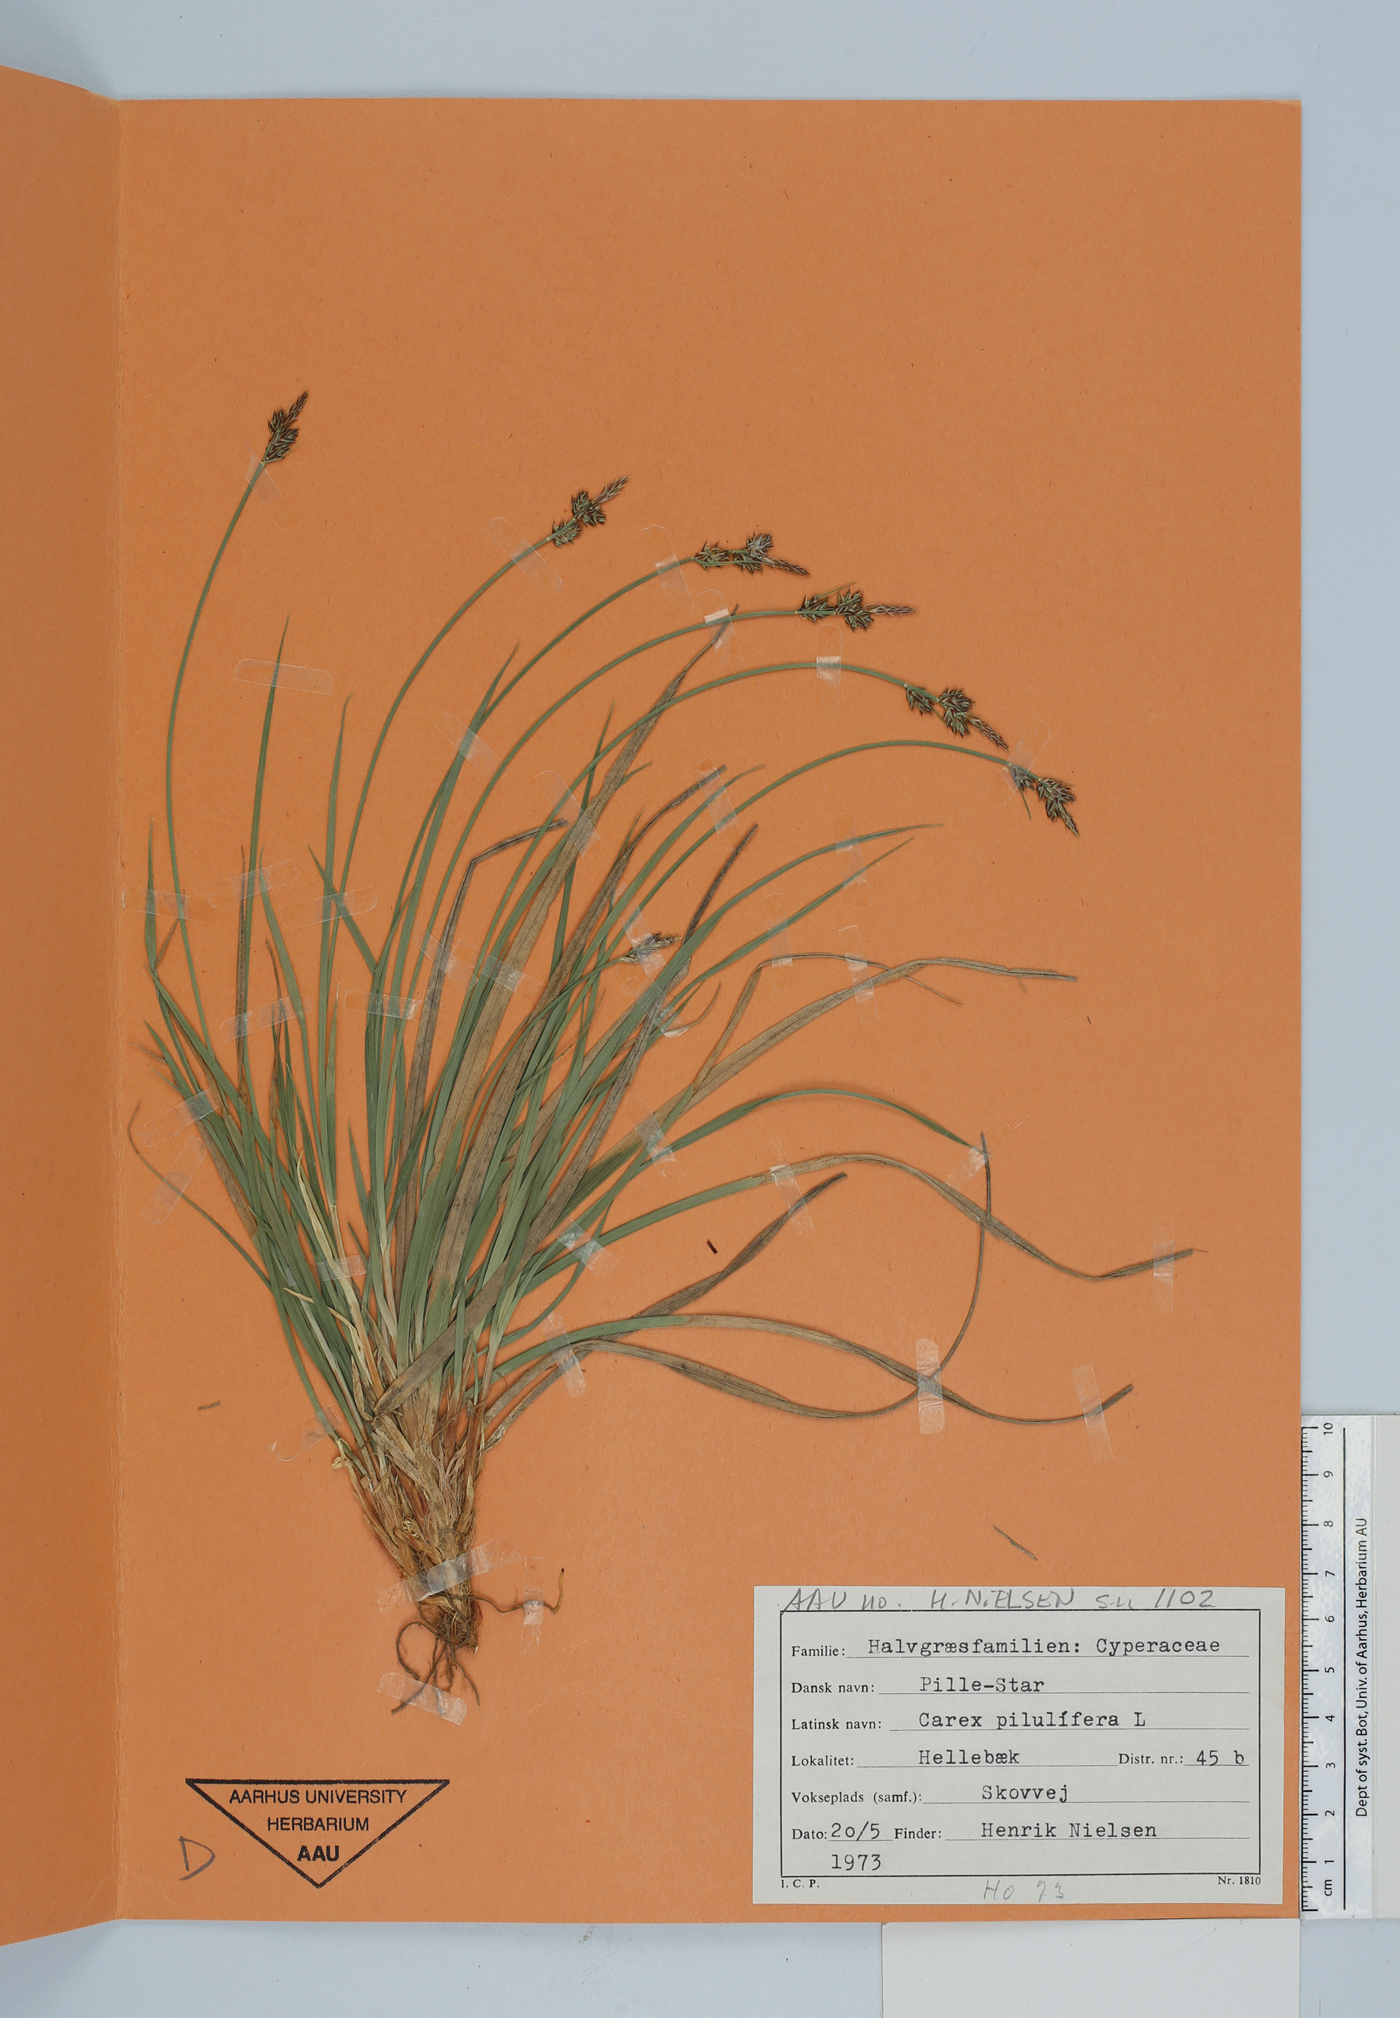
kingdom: Plantae
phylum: Tracheophyta
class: Liliopsida
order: Poales
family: Cyperaceae
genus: Carex
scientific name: Carex pilulifera
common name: Pill sedge
